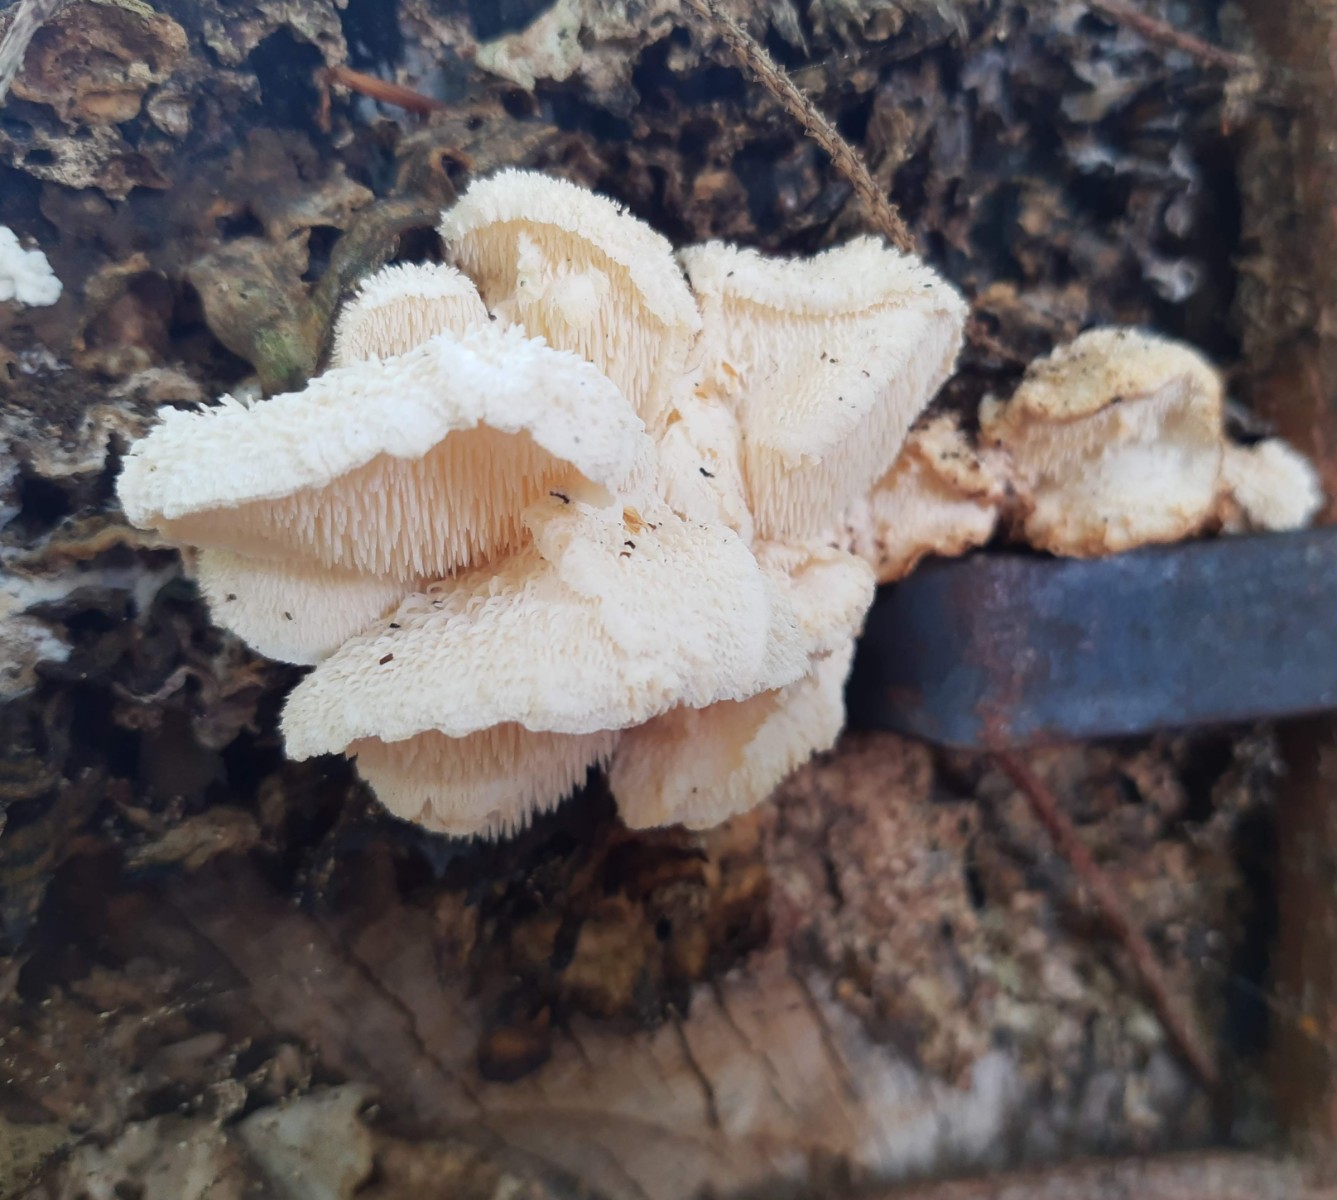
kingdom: Fungi
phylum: Basidiomycota
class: Agaricomycetes
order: Russulales
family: Hericiaceae
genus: Hericium
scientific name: Hericium cirrhatum
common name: børstepigsvamp
